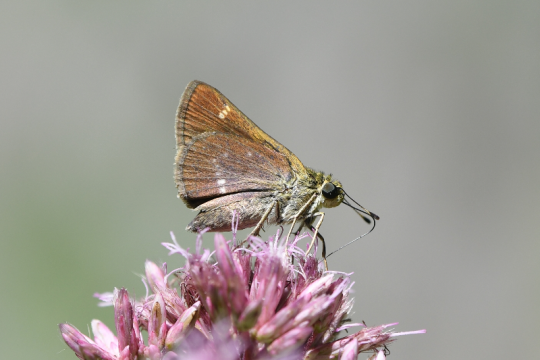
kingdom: Animalia
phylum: Arthropoda
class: Insecta
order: Lepidoptera
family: Hesperiidae
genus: Vernia
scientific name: Vernia verna
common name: Little Glassywing
